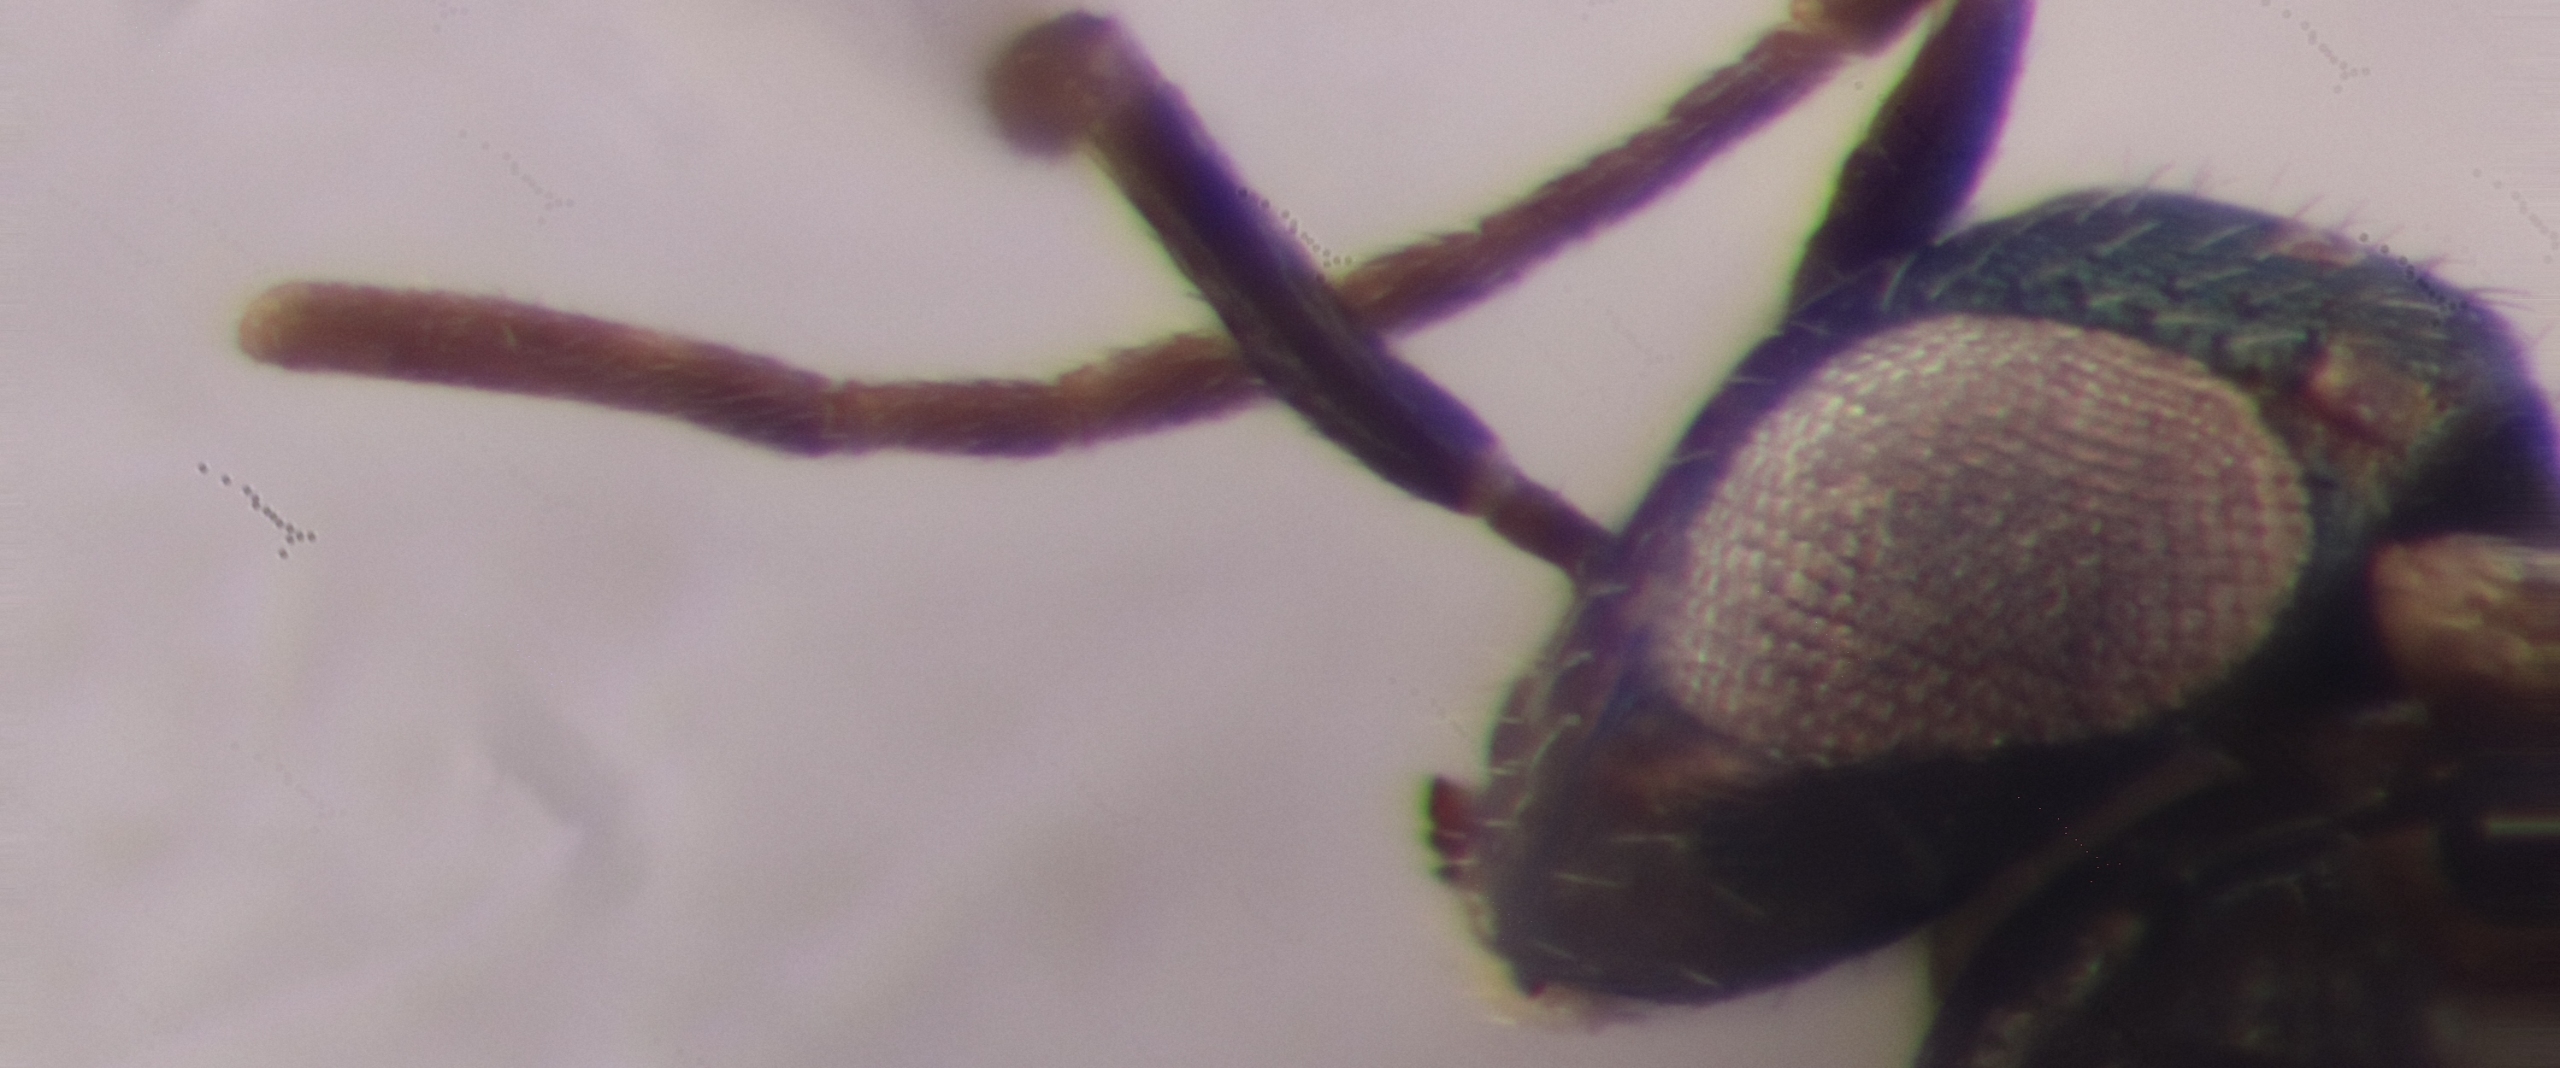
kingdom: Animalia
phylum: Arthropoda
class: Insecta
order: Hymenoptera
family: Encyrtidae
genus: Ageniaspis
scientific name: Ageniaspis longicornis
